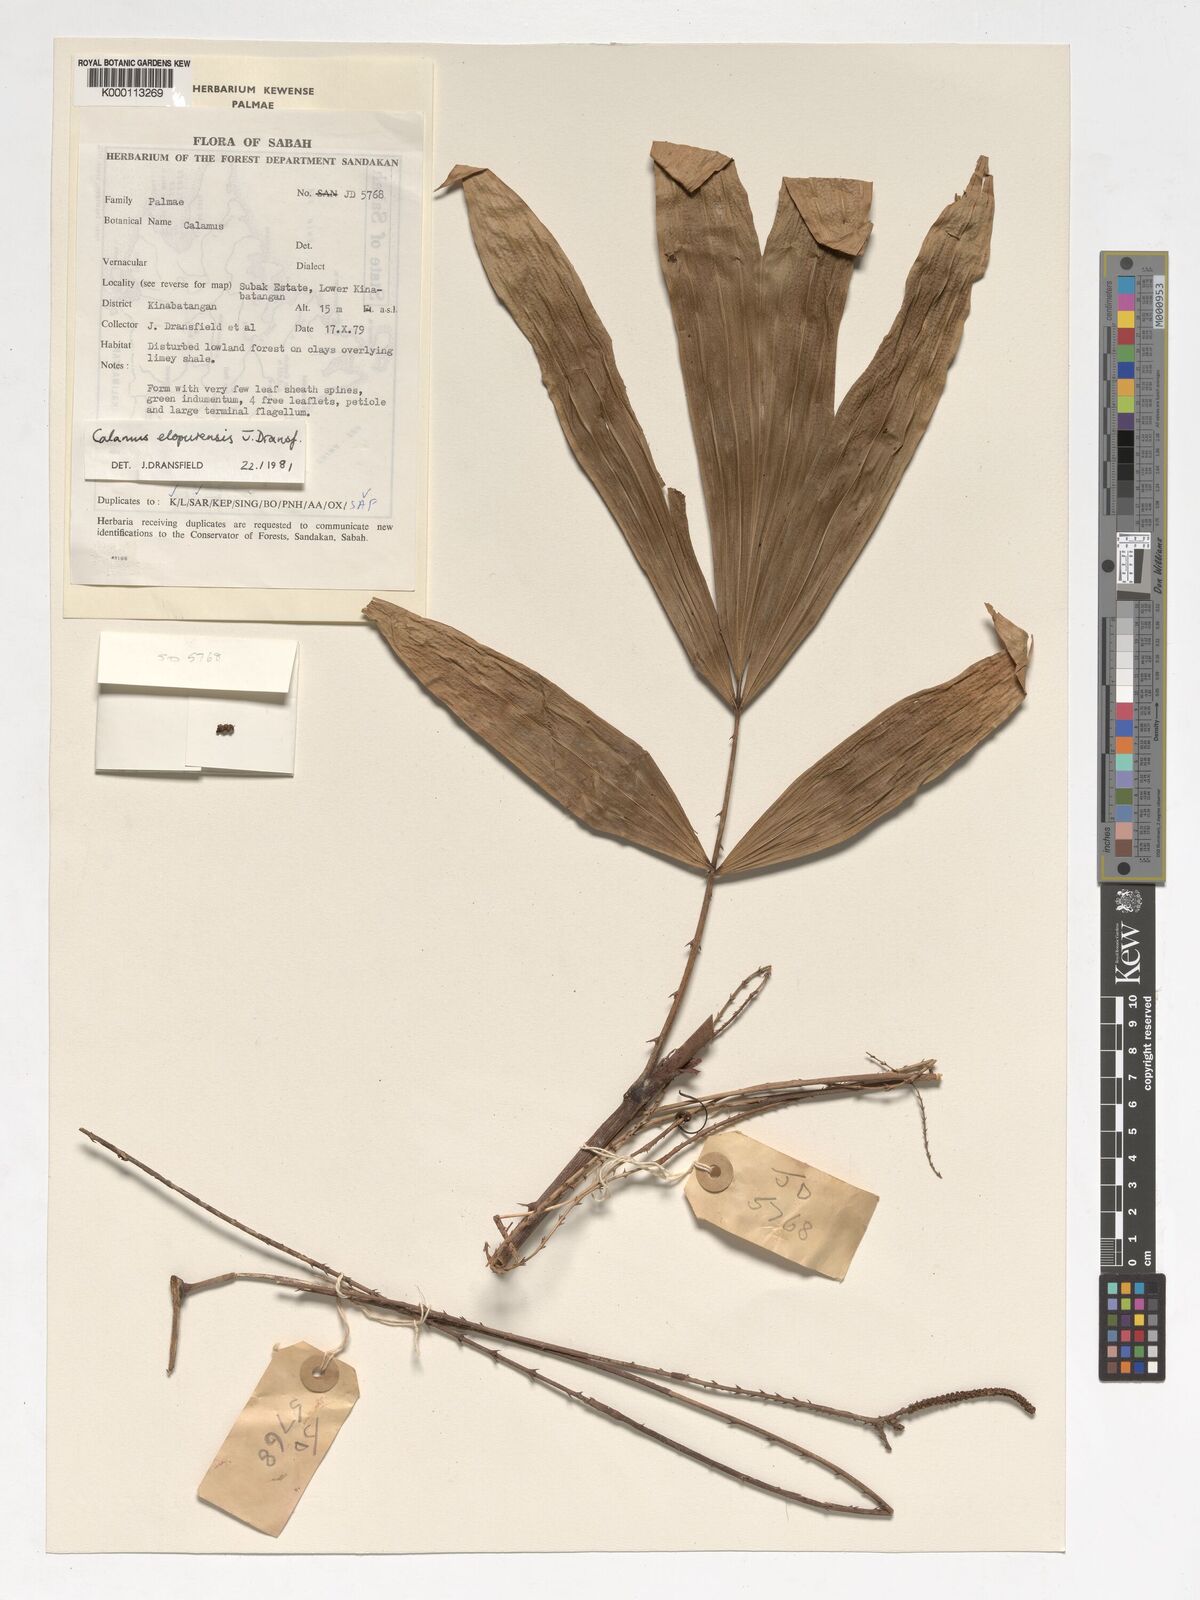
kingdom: Plantae
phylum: Tracheophyta
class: Liliopsida
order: Arecales
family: Arecaceae
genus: Calamus
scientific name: Calamus javensis
